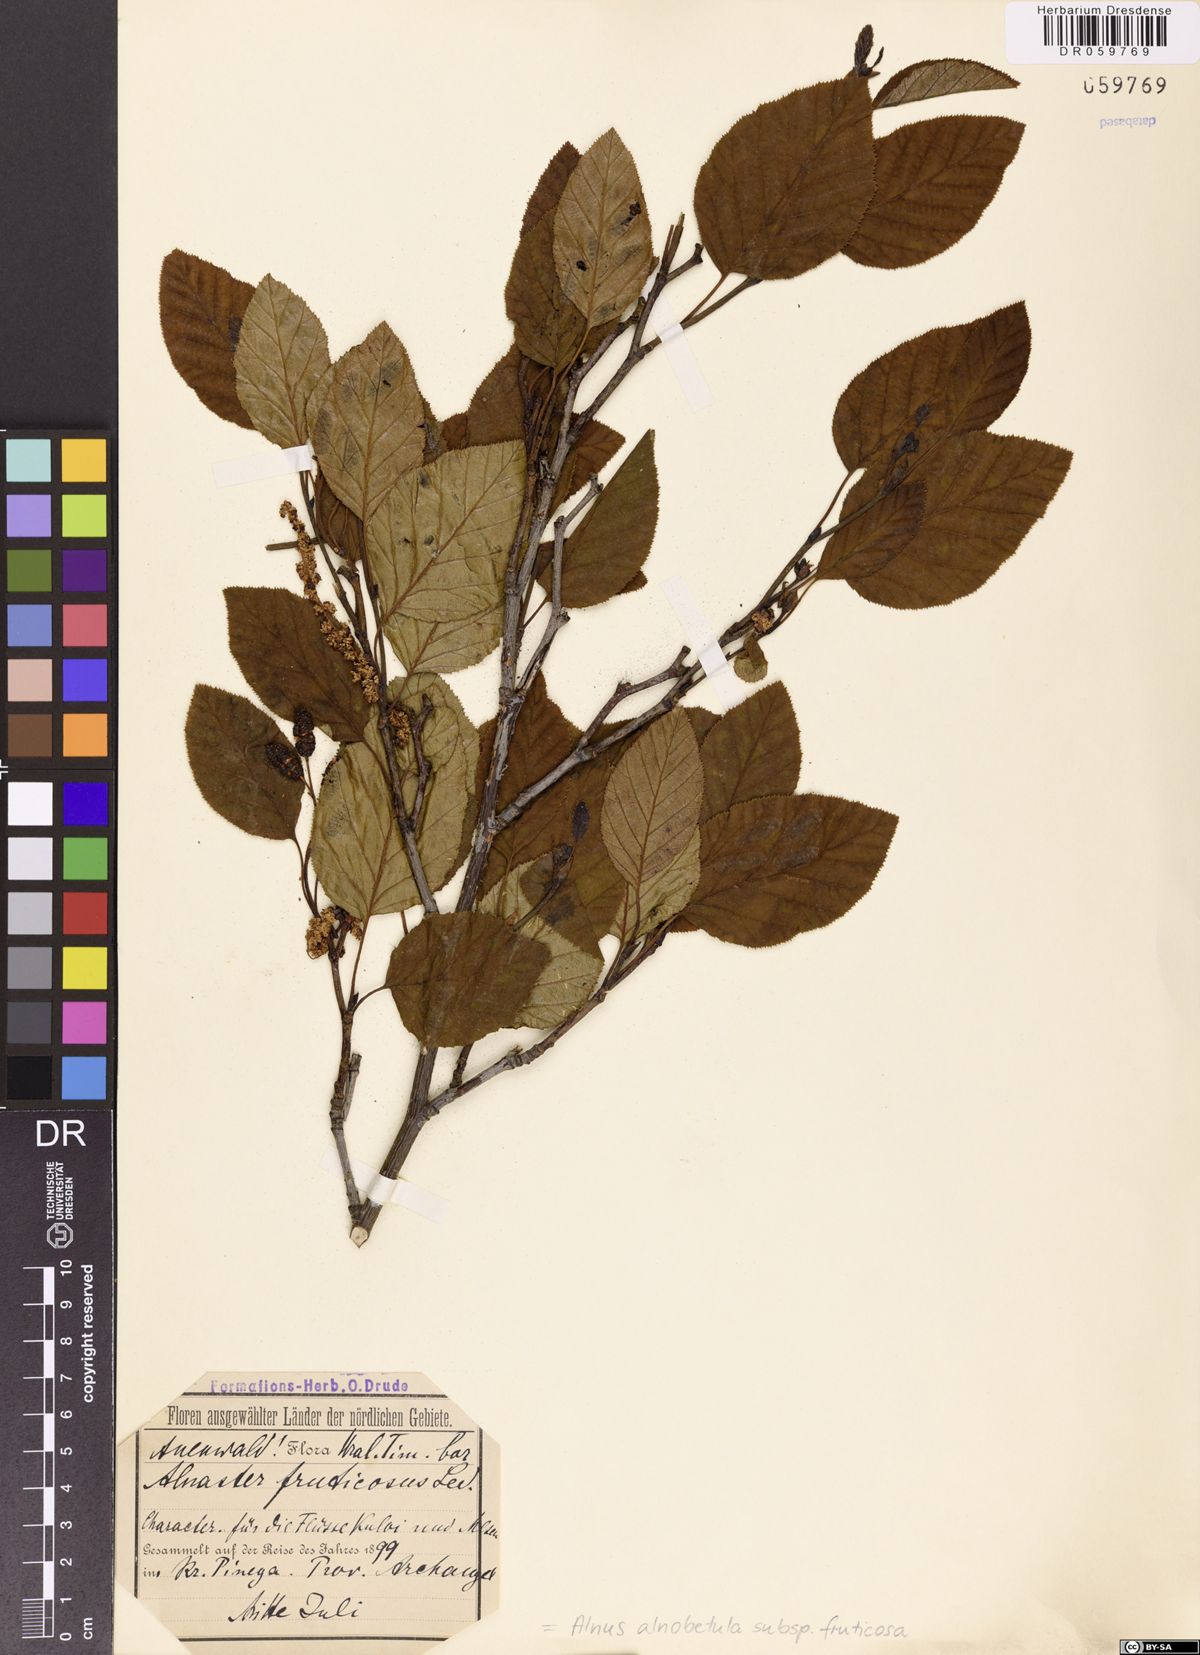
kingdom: Plantae
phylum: Tracheophyta
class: Magnoliopsida
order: Fagales
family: Betulaceae
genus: Alnus
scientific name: Alnus alnobetula
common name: Green alder
